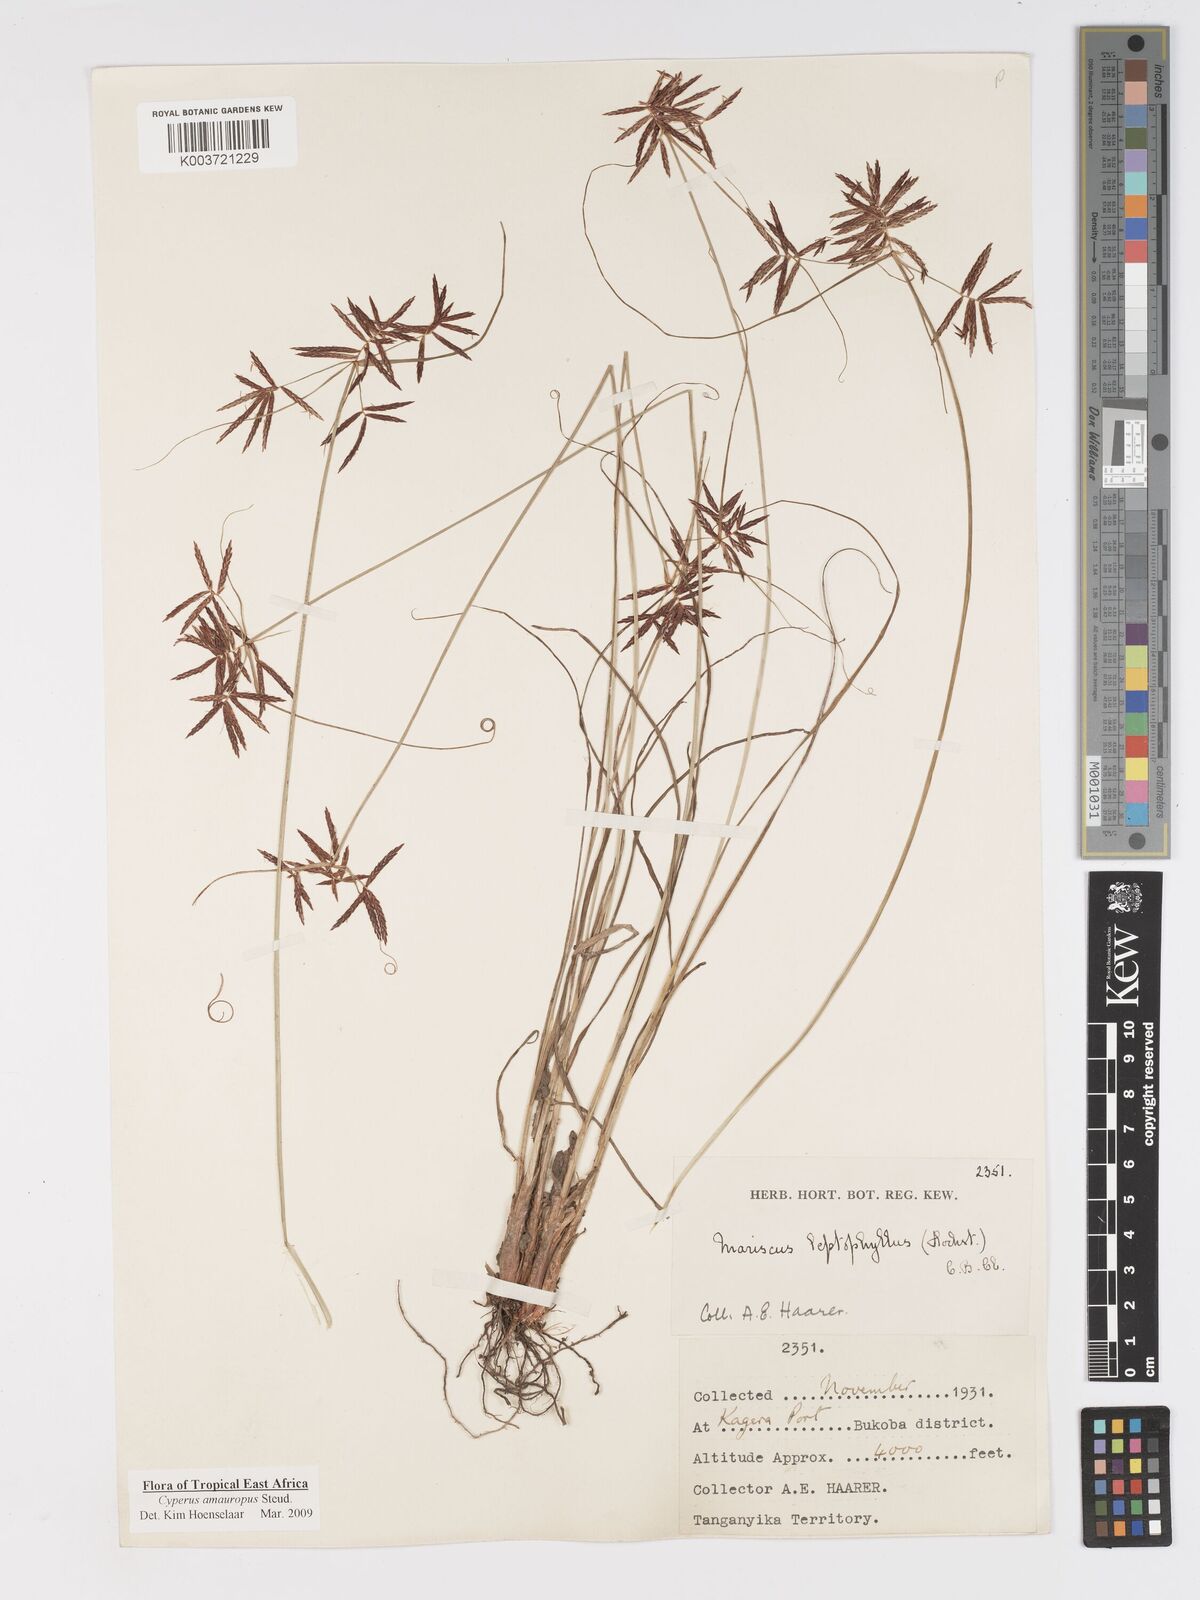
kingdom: Plantae
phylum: Tracheophyta
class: Liliopsida
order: Poales
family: Cyperaceae
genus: Cyperus
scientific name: Cyperus amauropus
